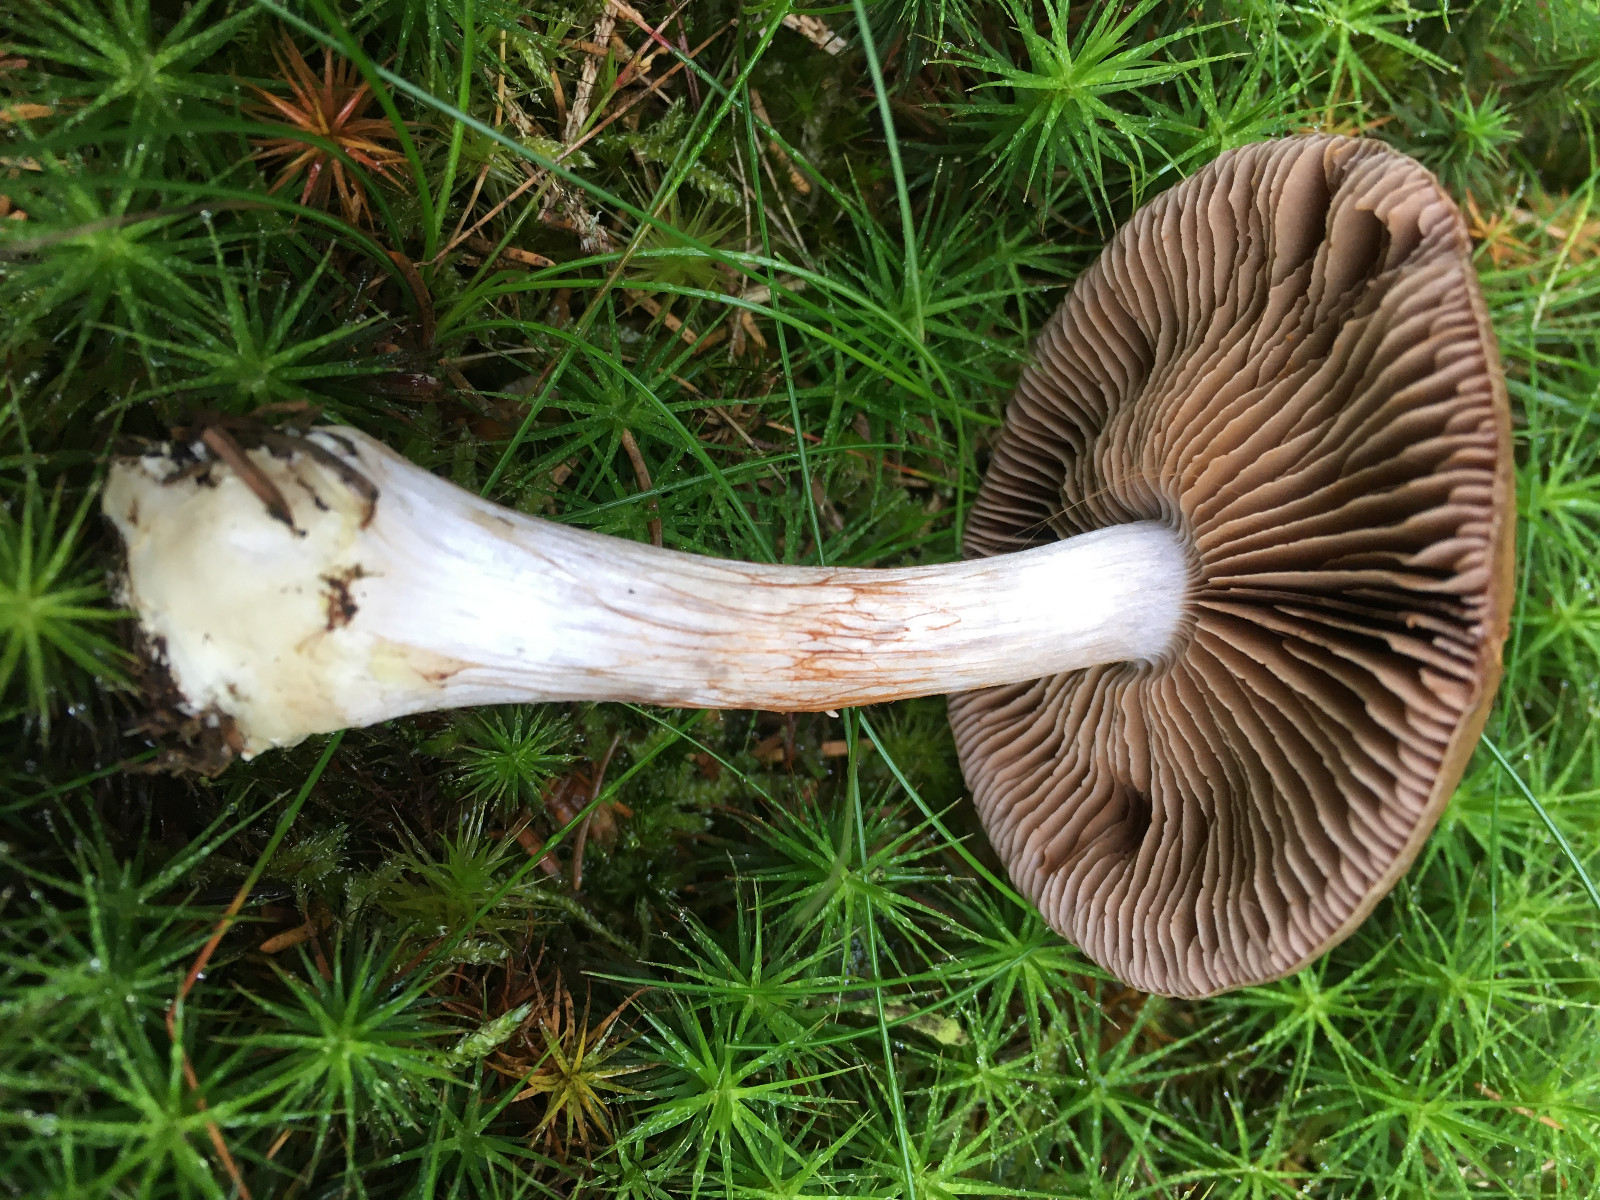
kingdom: Fungi
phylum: Basidiomycota
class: Agaricomycetes
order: Agaricales
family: Cortinariaceae
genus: Cortinarius
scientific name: Cortinarius
